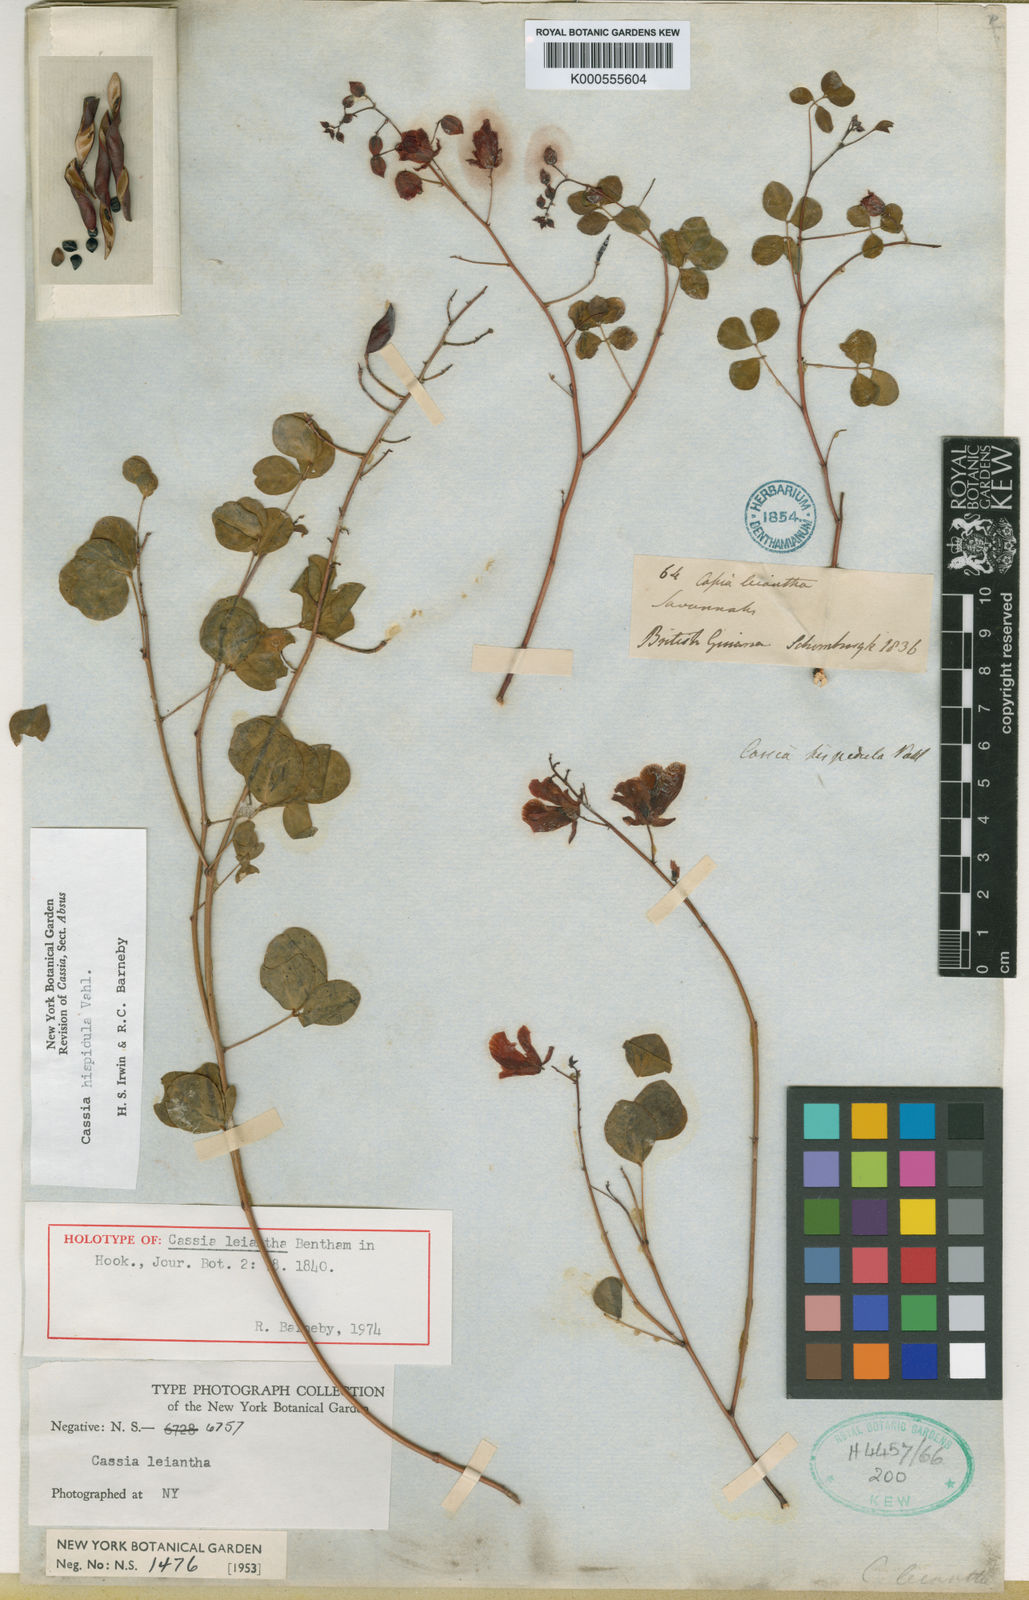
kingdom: Plantae
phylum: Tracheophyta
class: Magnoliopsida
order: Fabales
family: Fabaceae
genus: Chamaecrista
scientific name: Chamaecrista hispidula
